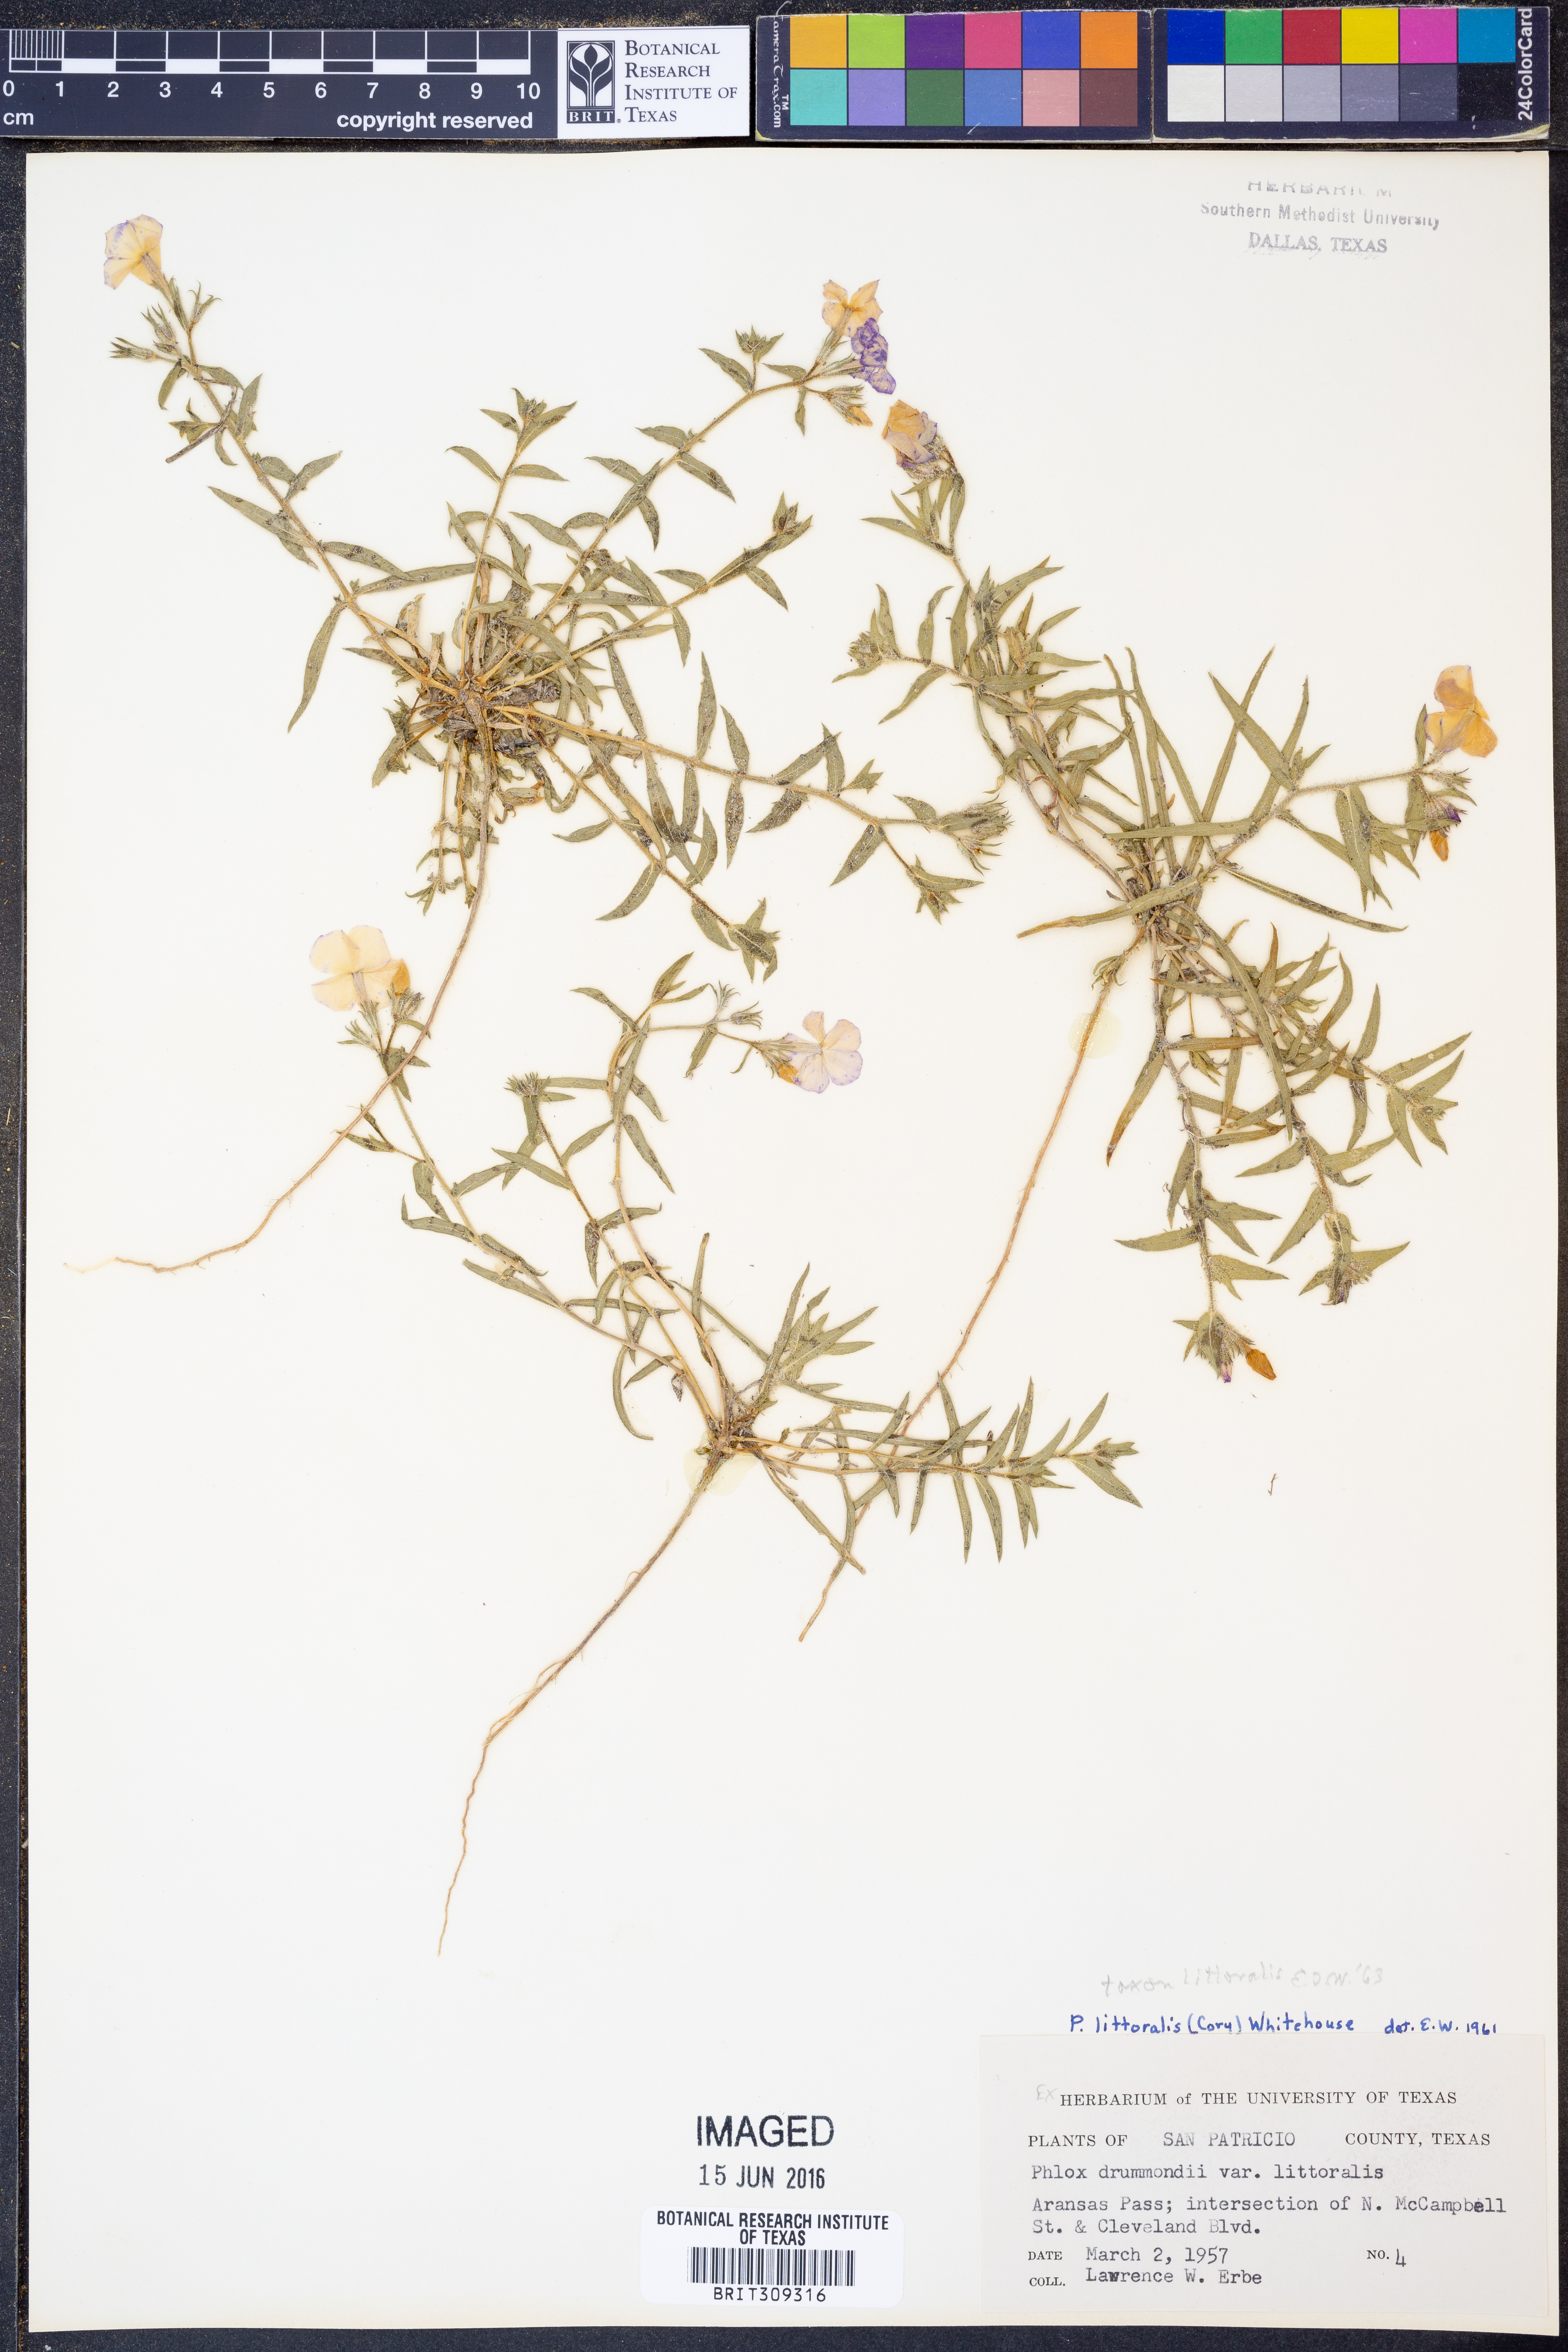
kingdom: Plantae
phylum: Tracheophyta
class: Magnoliopsida
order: Ericales
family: Polemoniaceae
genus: Phlox
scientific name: Phlox glabriflora
